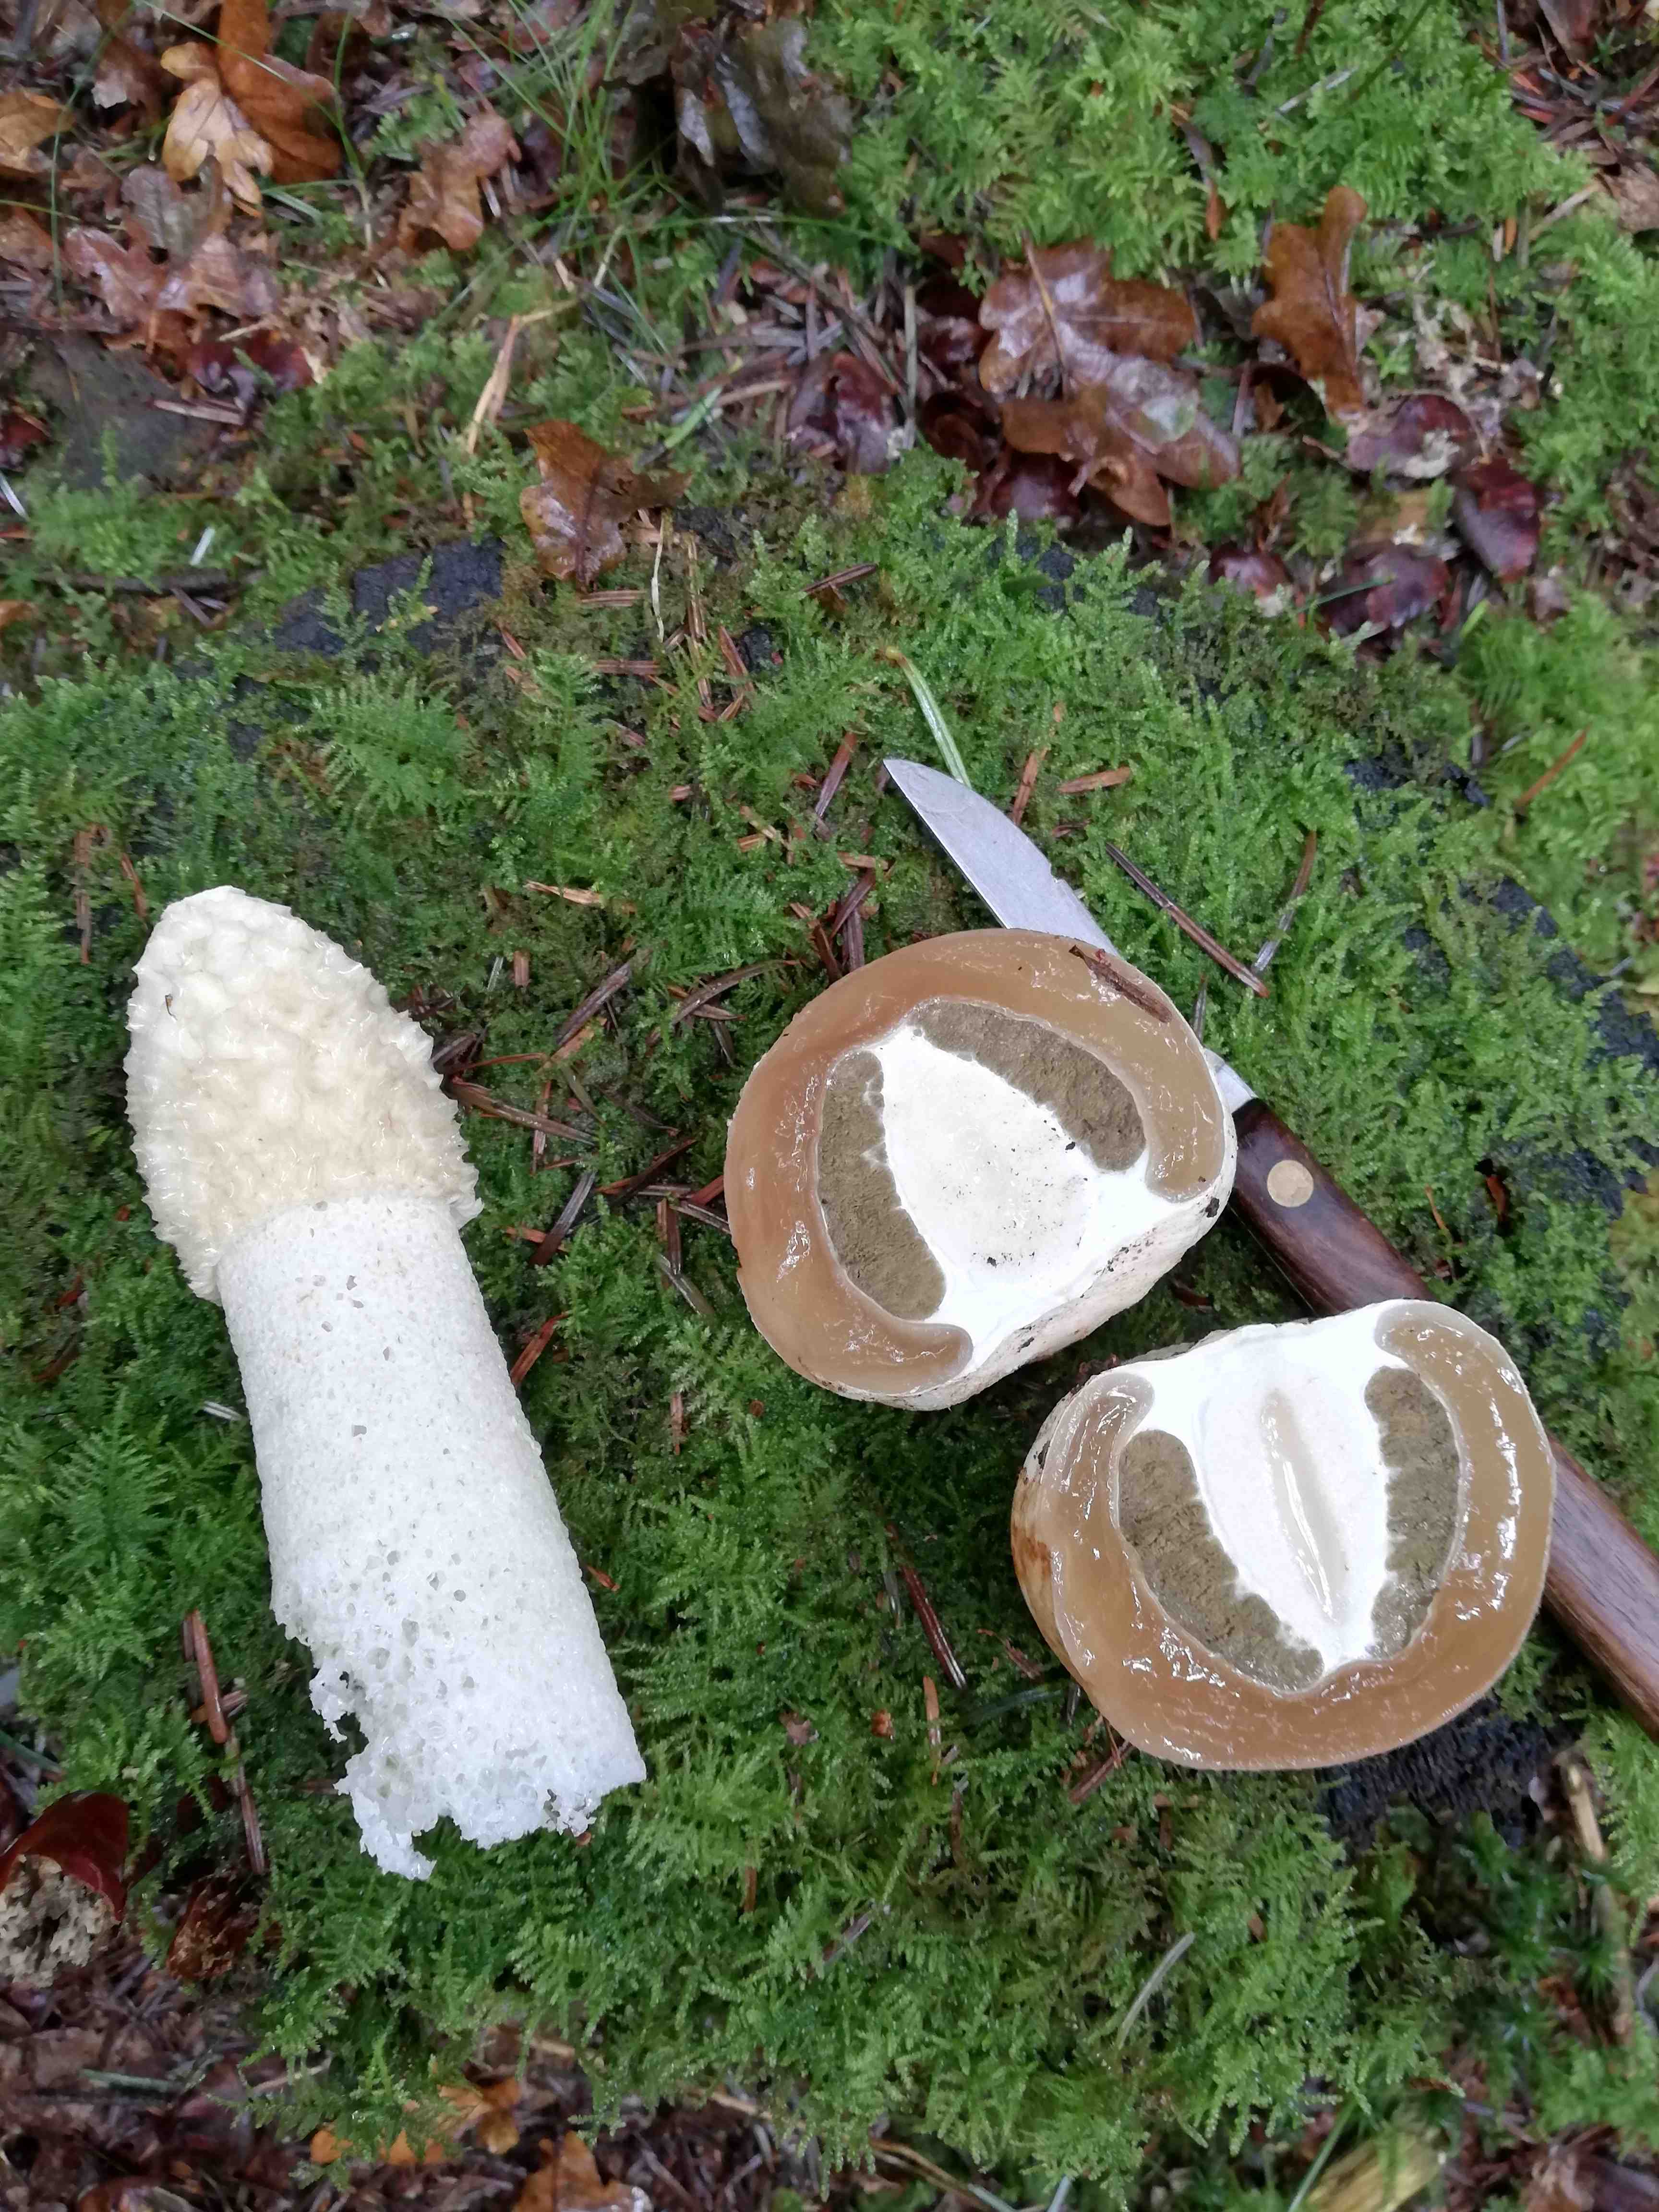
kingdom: Fungi
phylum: Basidiomycota
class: Agaricomycetes
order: Phallales
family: Phallaceae
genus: Phallus
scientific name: Phallus impudicus
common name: almindelig stinksvamp
